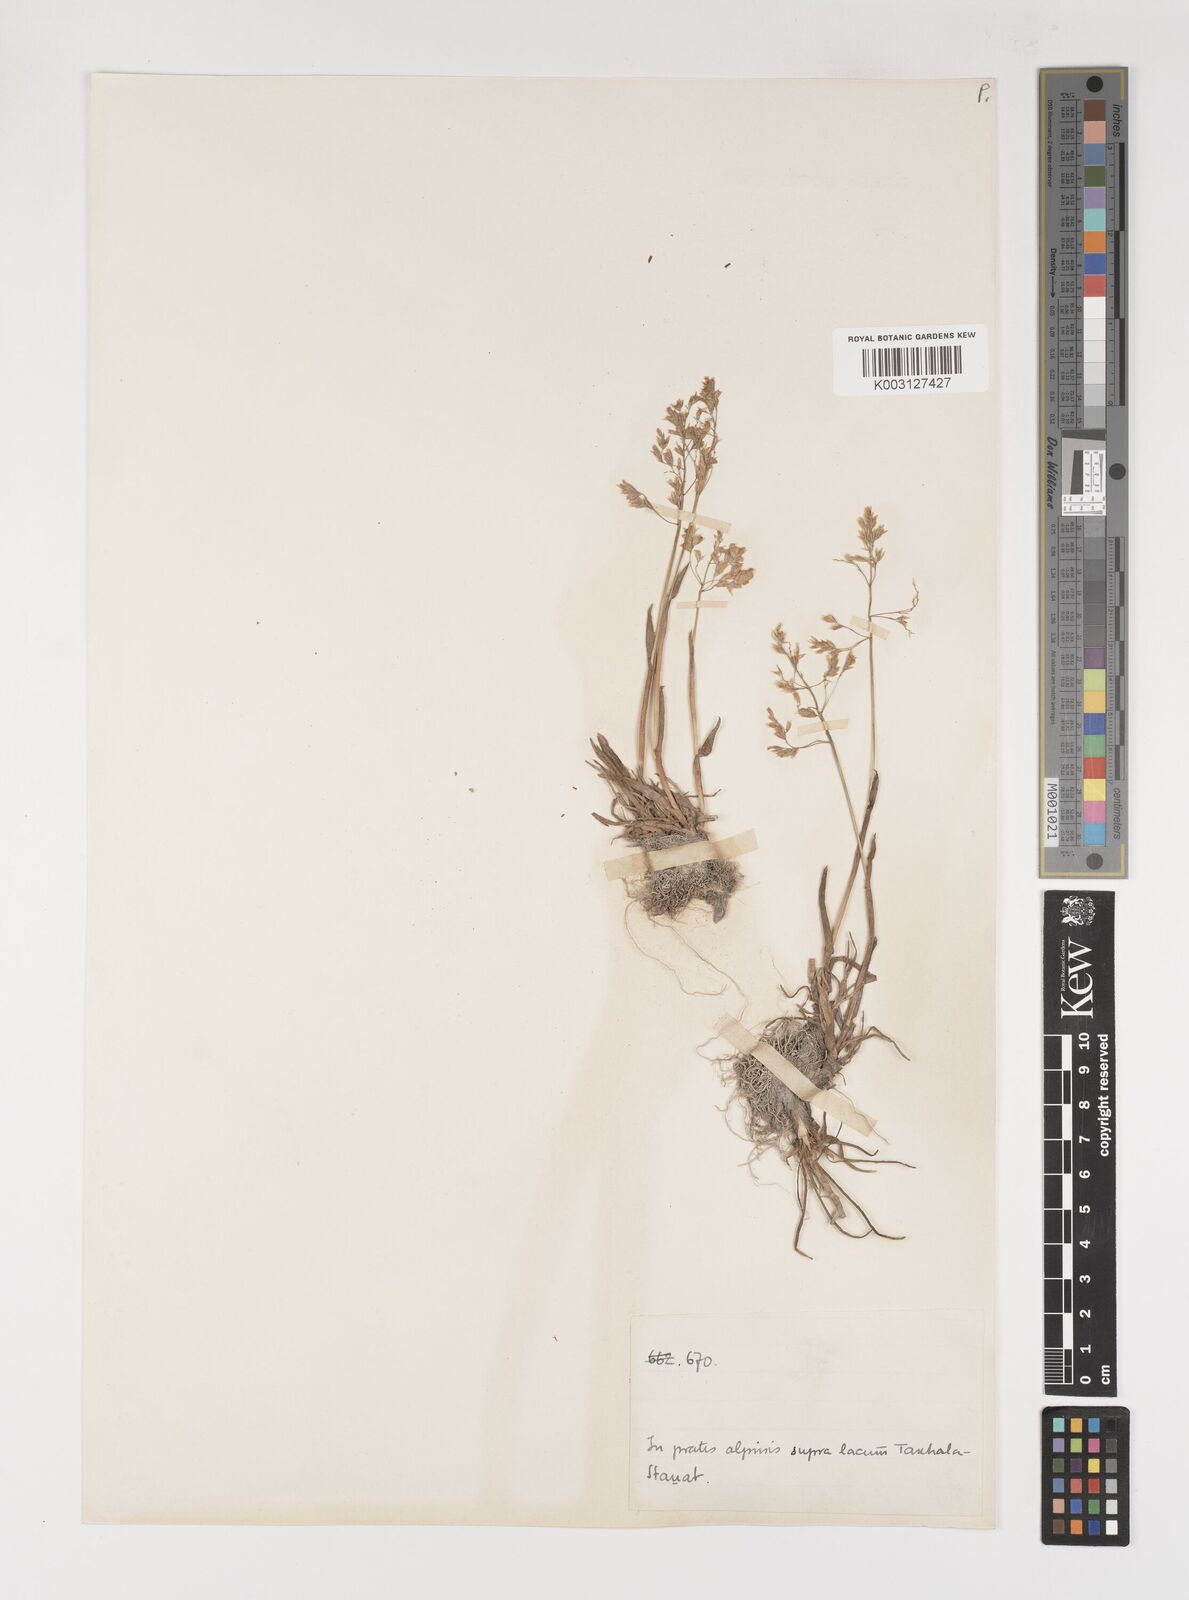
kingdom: Plantae
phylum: Tracheophyta
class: Liliopsida
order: Poales
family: Poaceae
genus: Poa
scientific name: Poa alpina
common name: Alpine bluegrass
